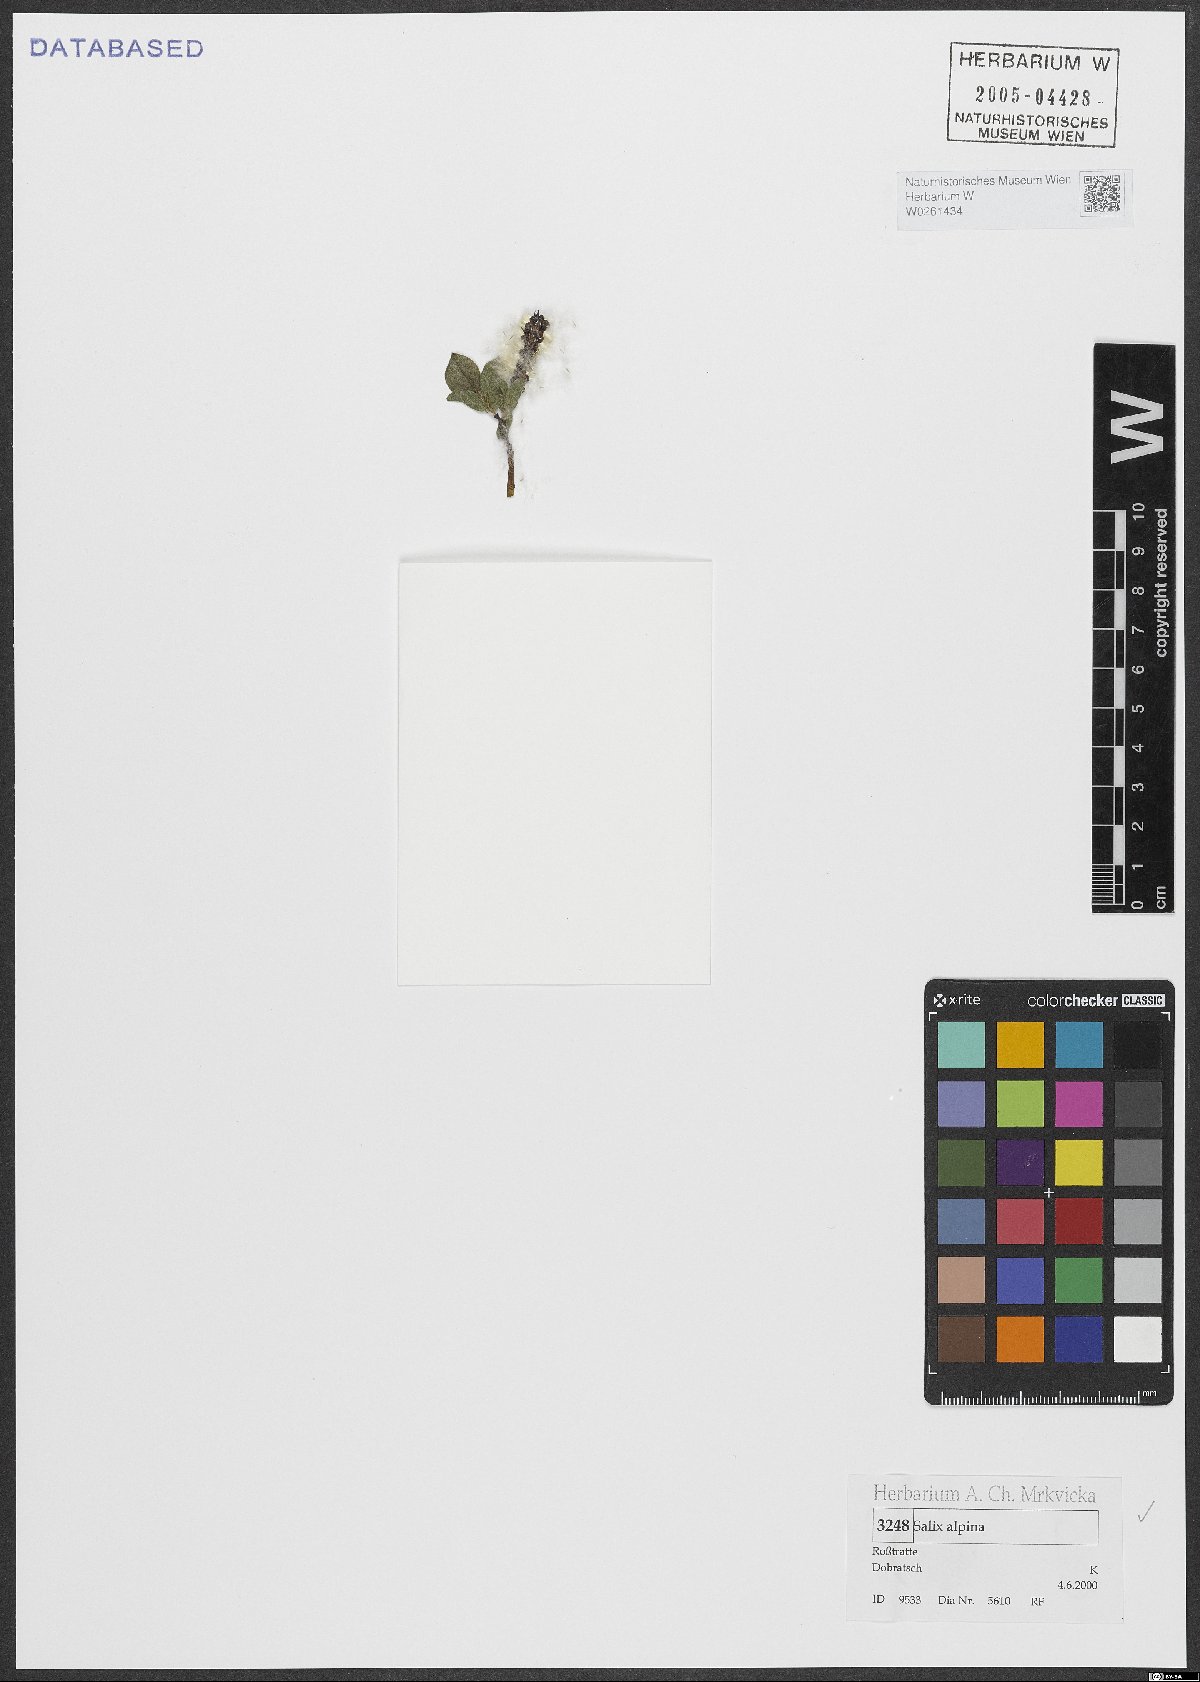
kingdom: Plantae
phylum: Tracheophyta
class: Magnoliopsida
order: Malpighiales
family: Salicaceae
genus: Salix
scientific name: Salix alpina
